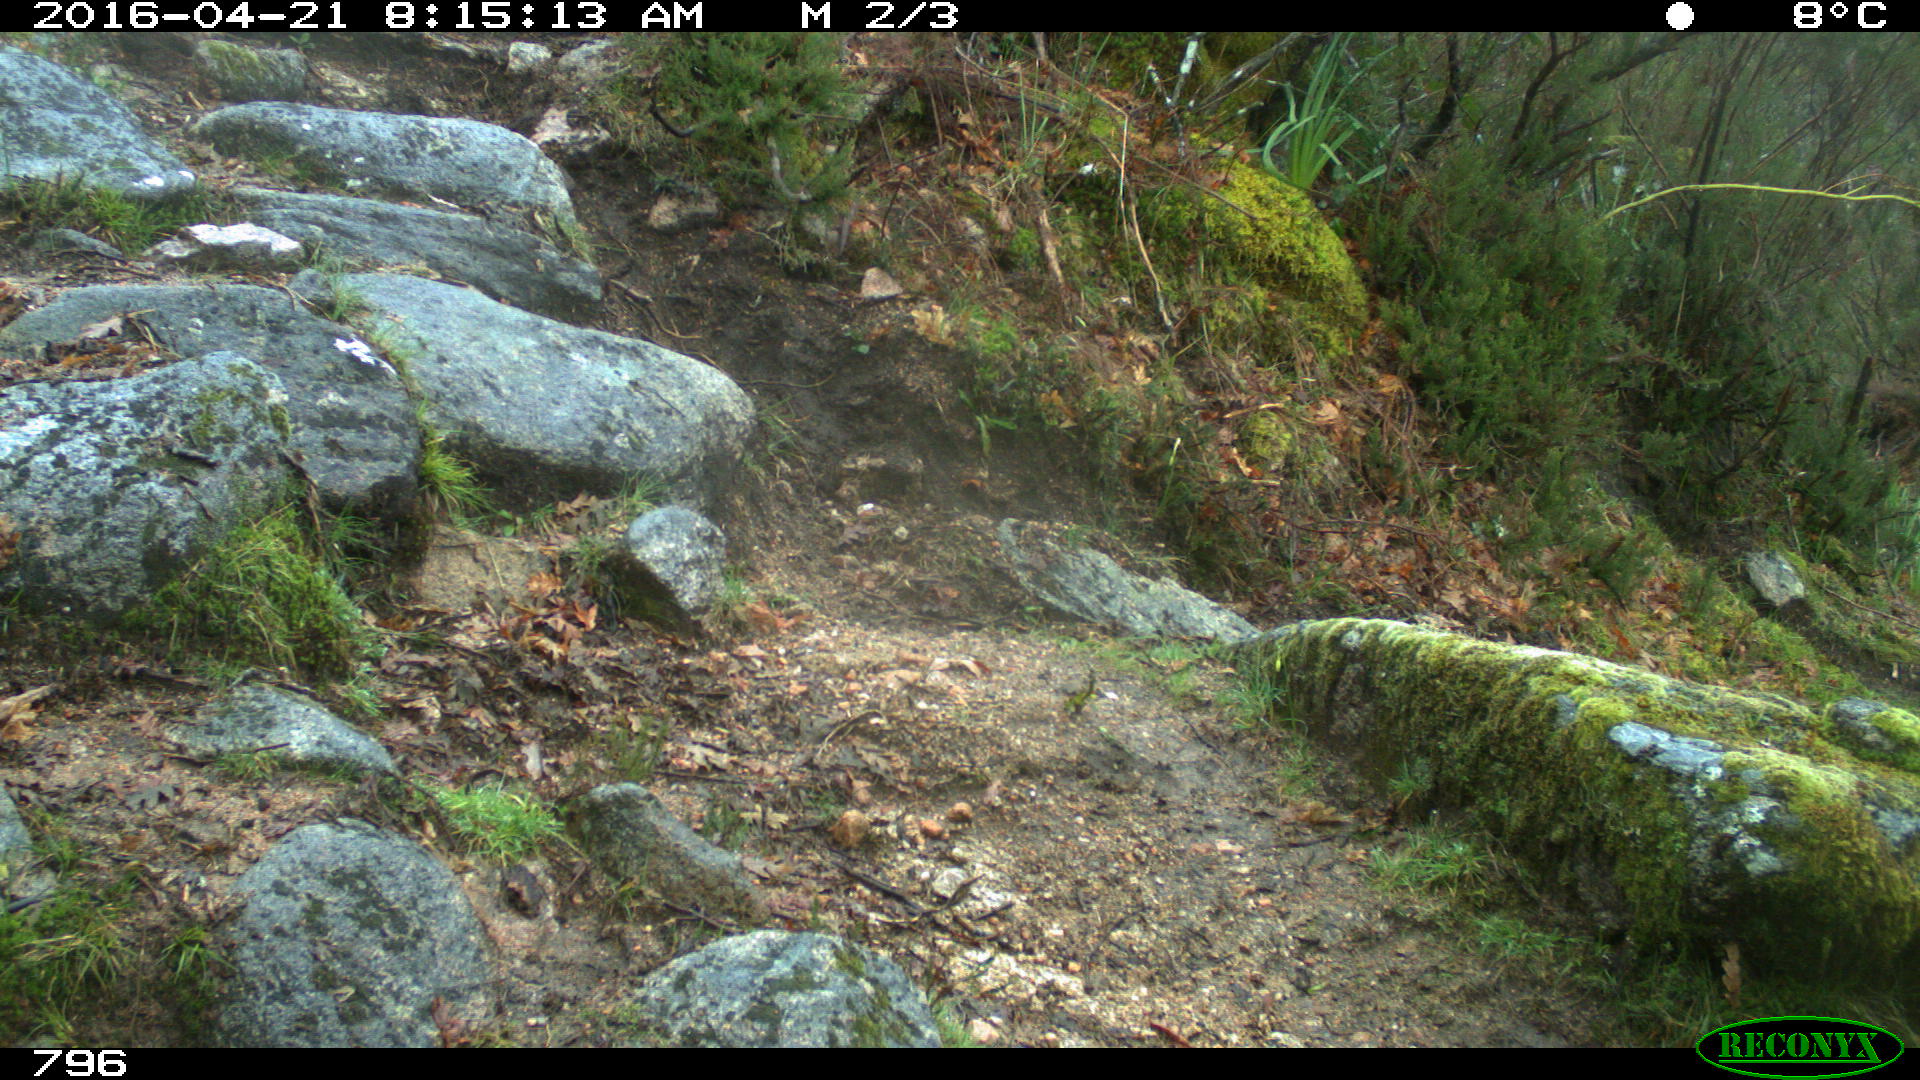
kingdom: Animalia
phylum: Chordata
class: Mammalia
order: Artiodactyla
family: Bovidae
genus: Bos
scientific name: Bos taurus
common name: Domesticated cattle
